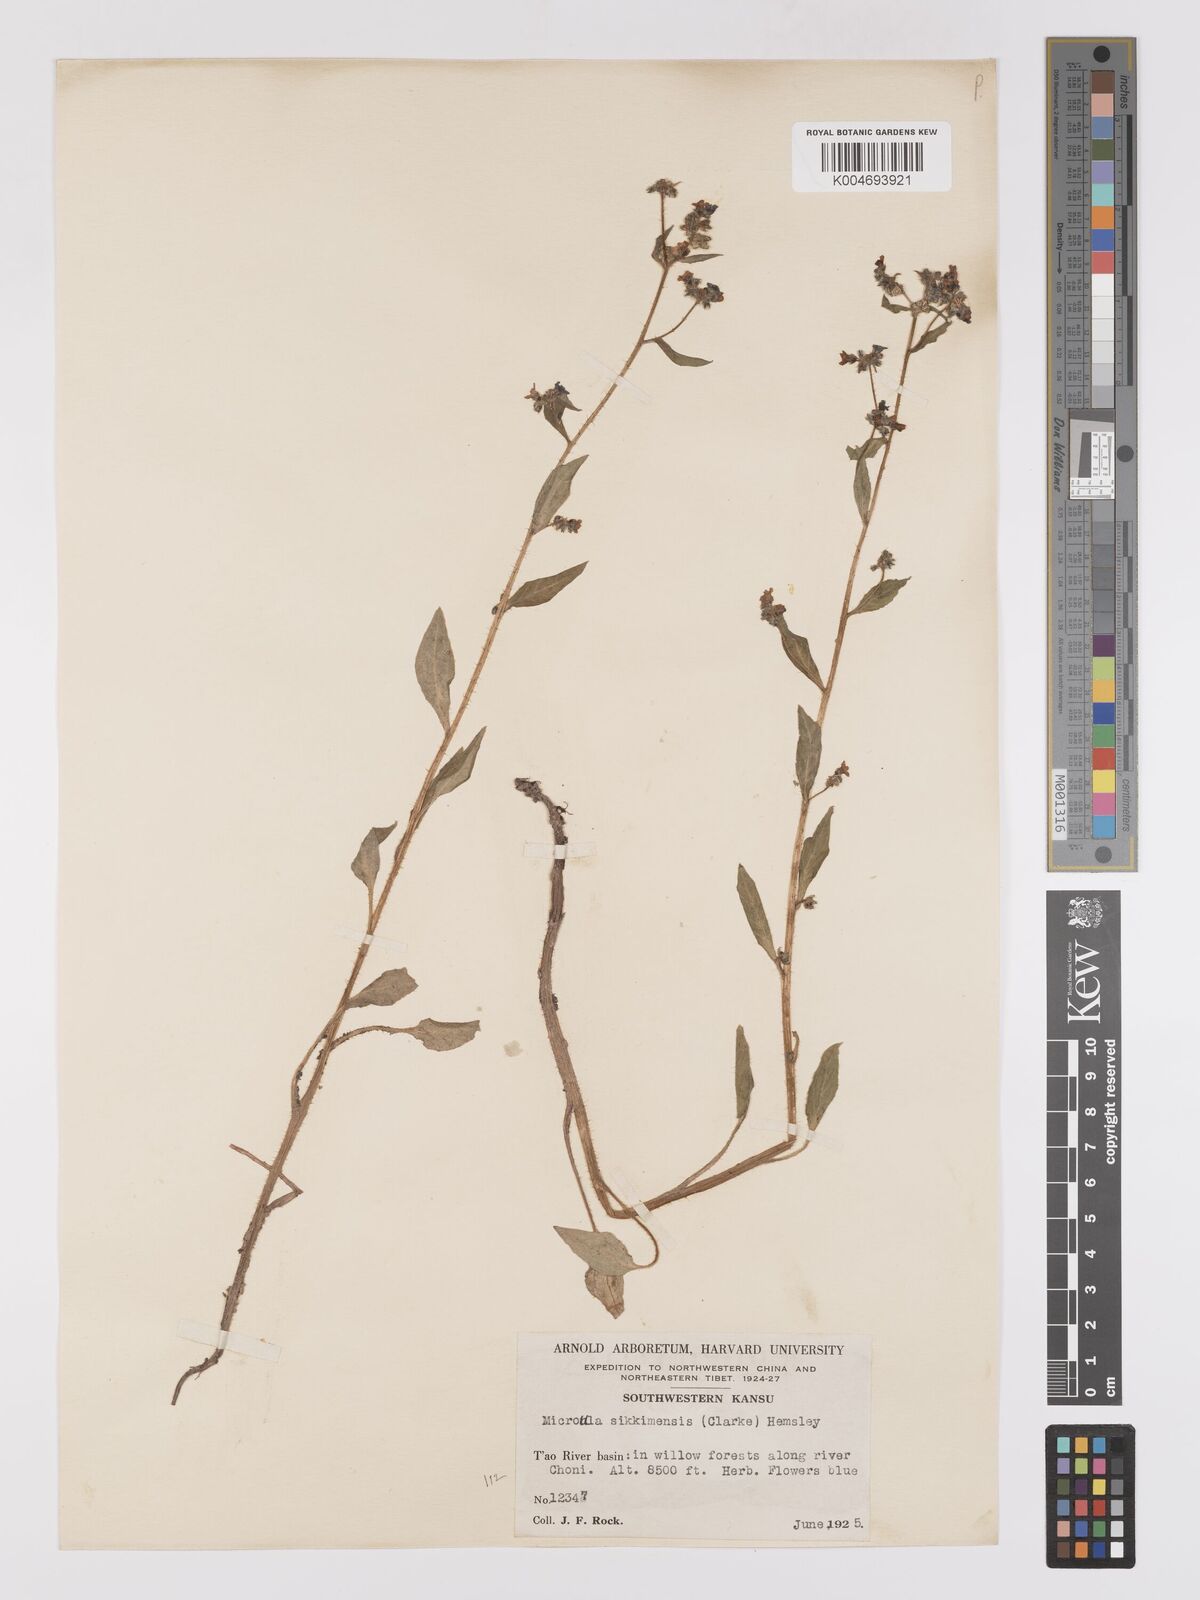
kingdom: Plantae
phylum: Tracheophyta
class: Magnoliopsida
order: Boraginales
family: Boraginaceae
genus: Microula
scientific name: Microula sikkimensis
